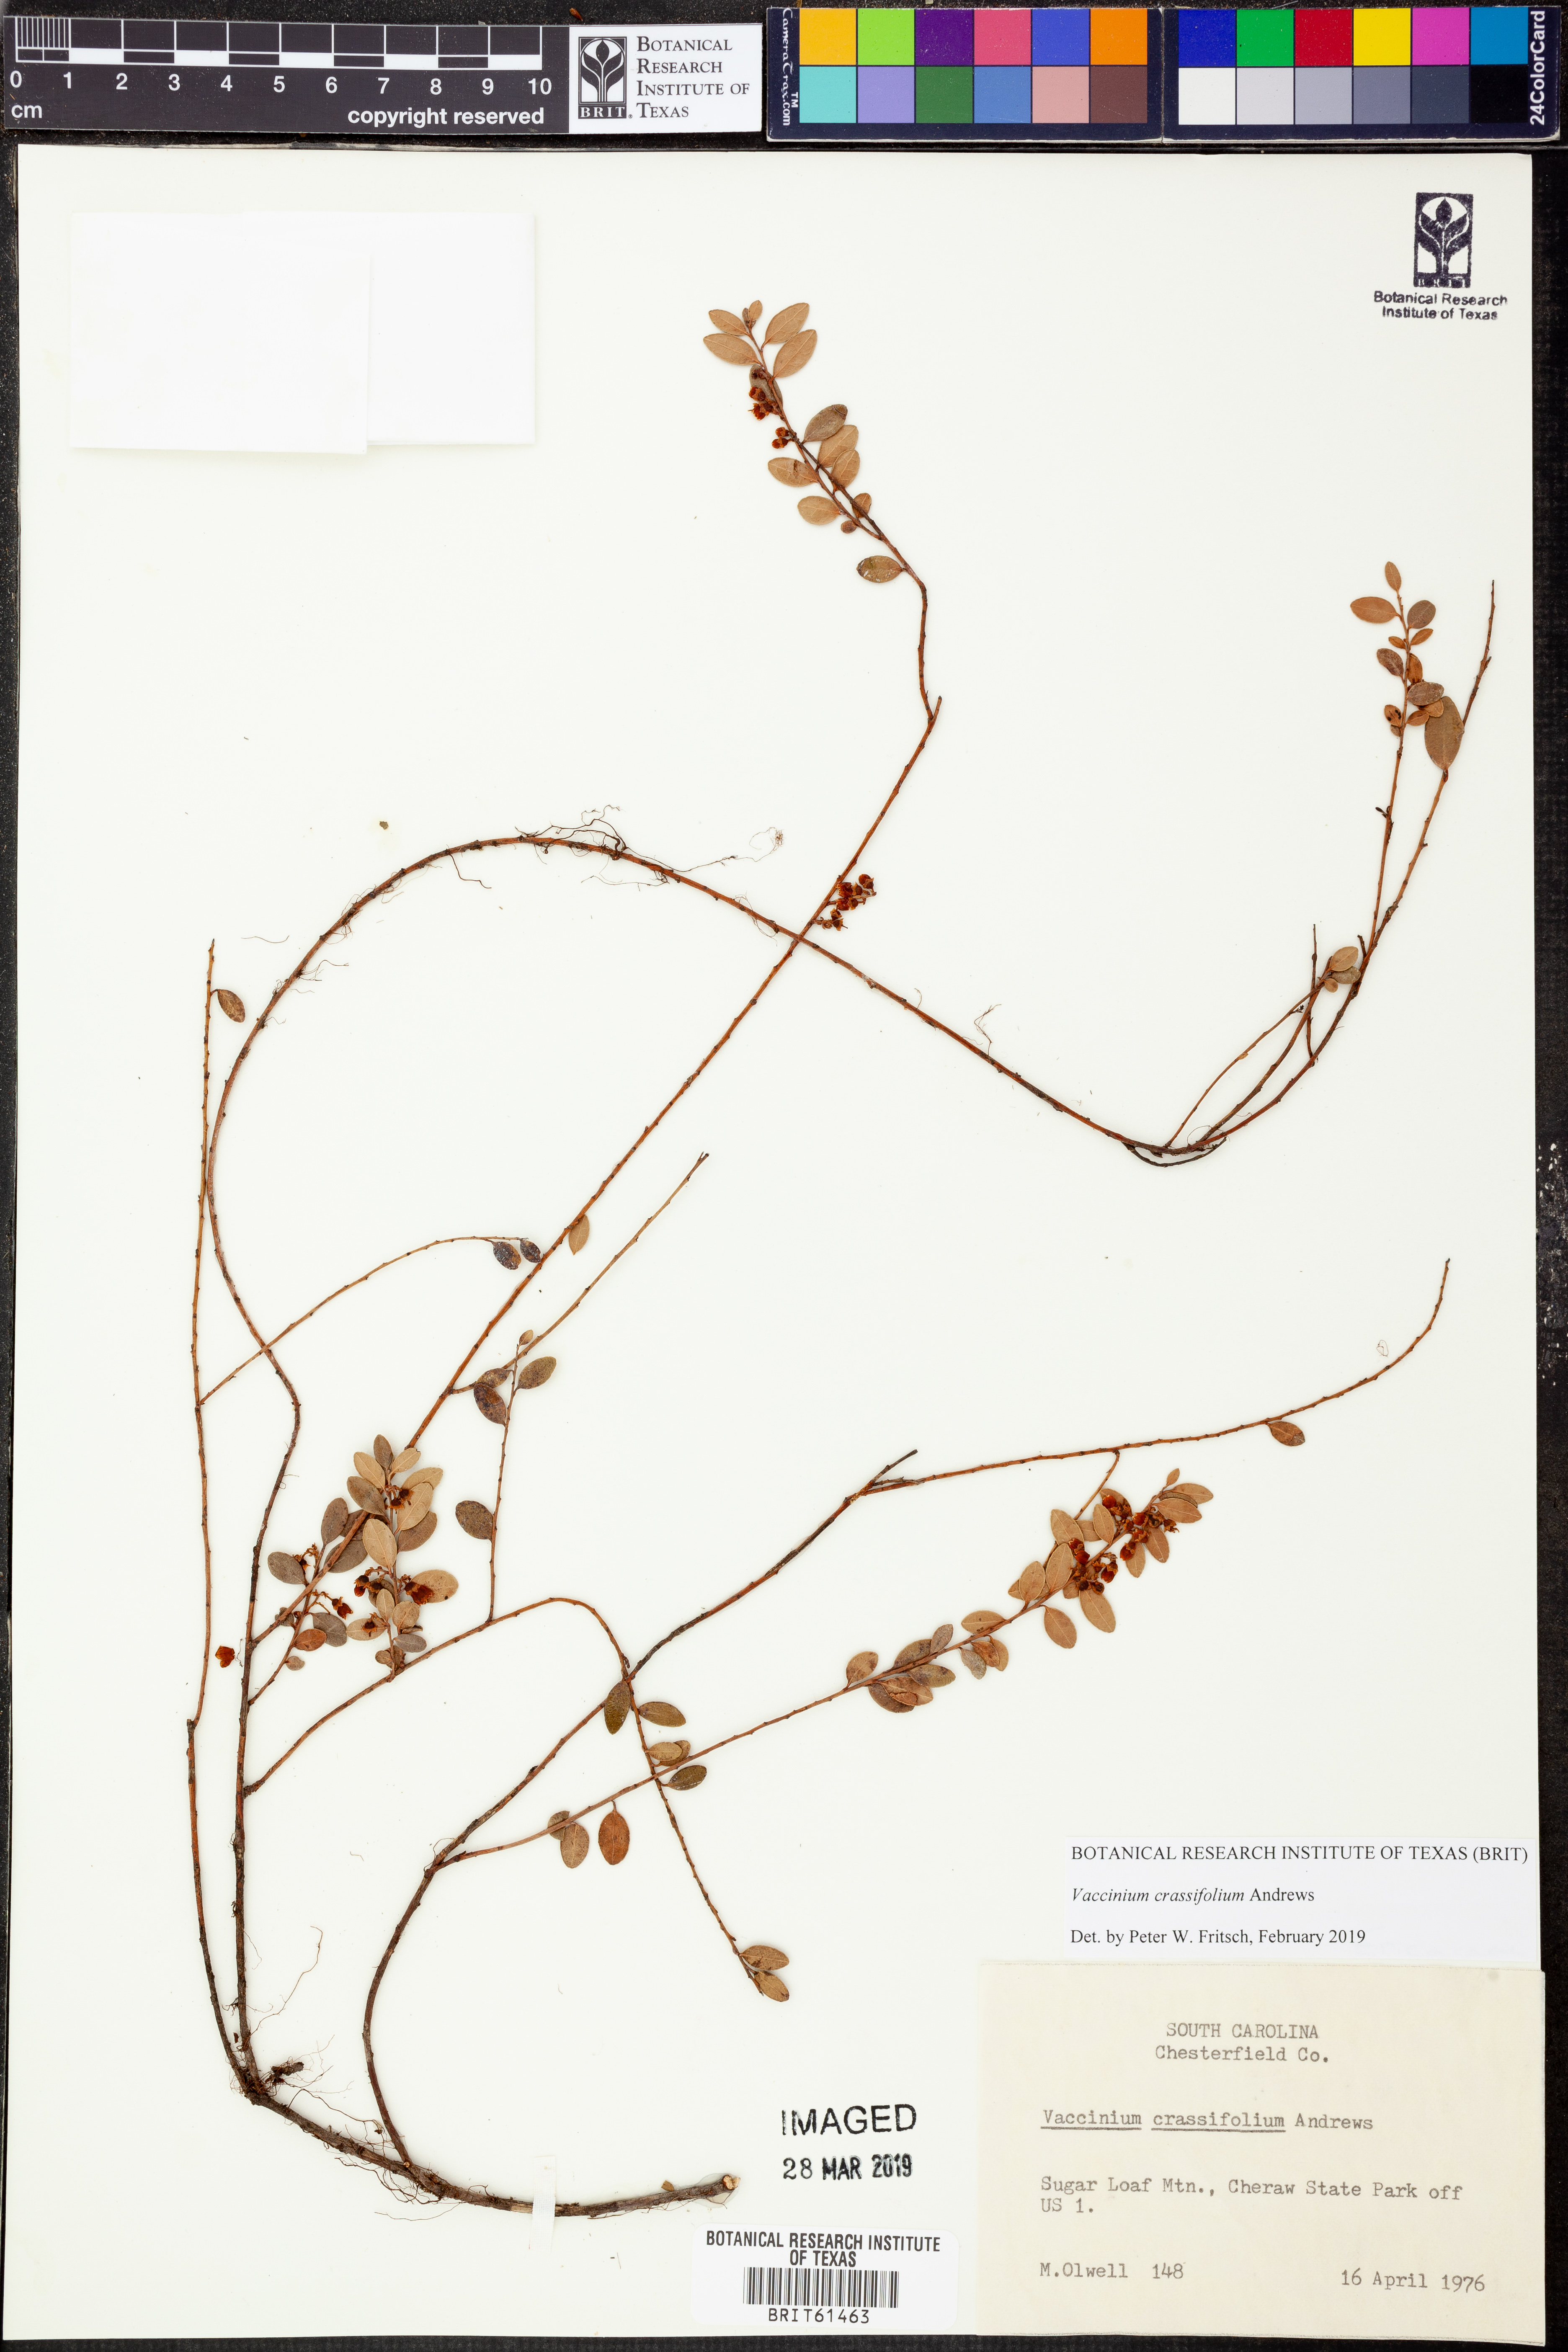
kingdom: Plantae
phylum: Tracheophyta
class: Magnoliopsida
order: Ericales
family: Ericaceae
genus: Vaccinium
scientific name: Vaccinium crassifolium
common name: Creeping blueberry
